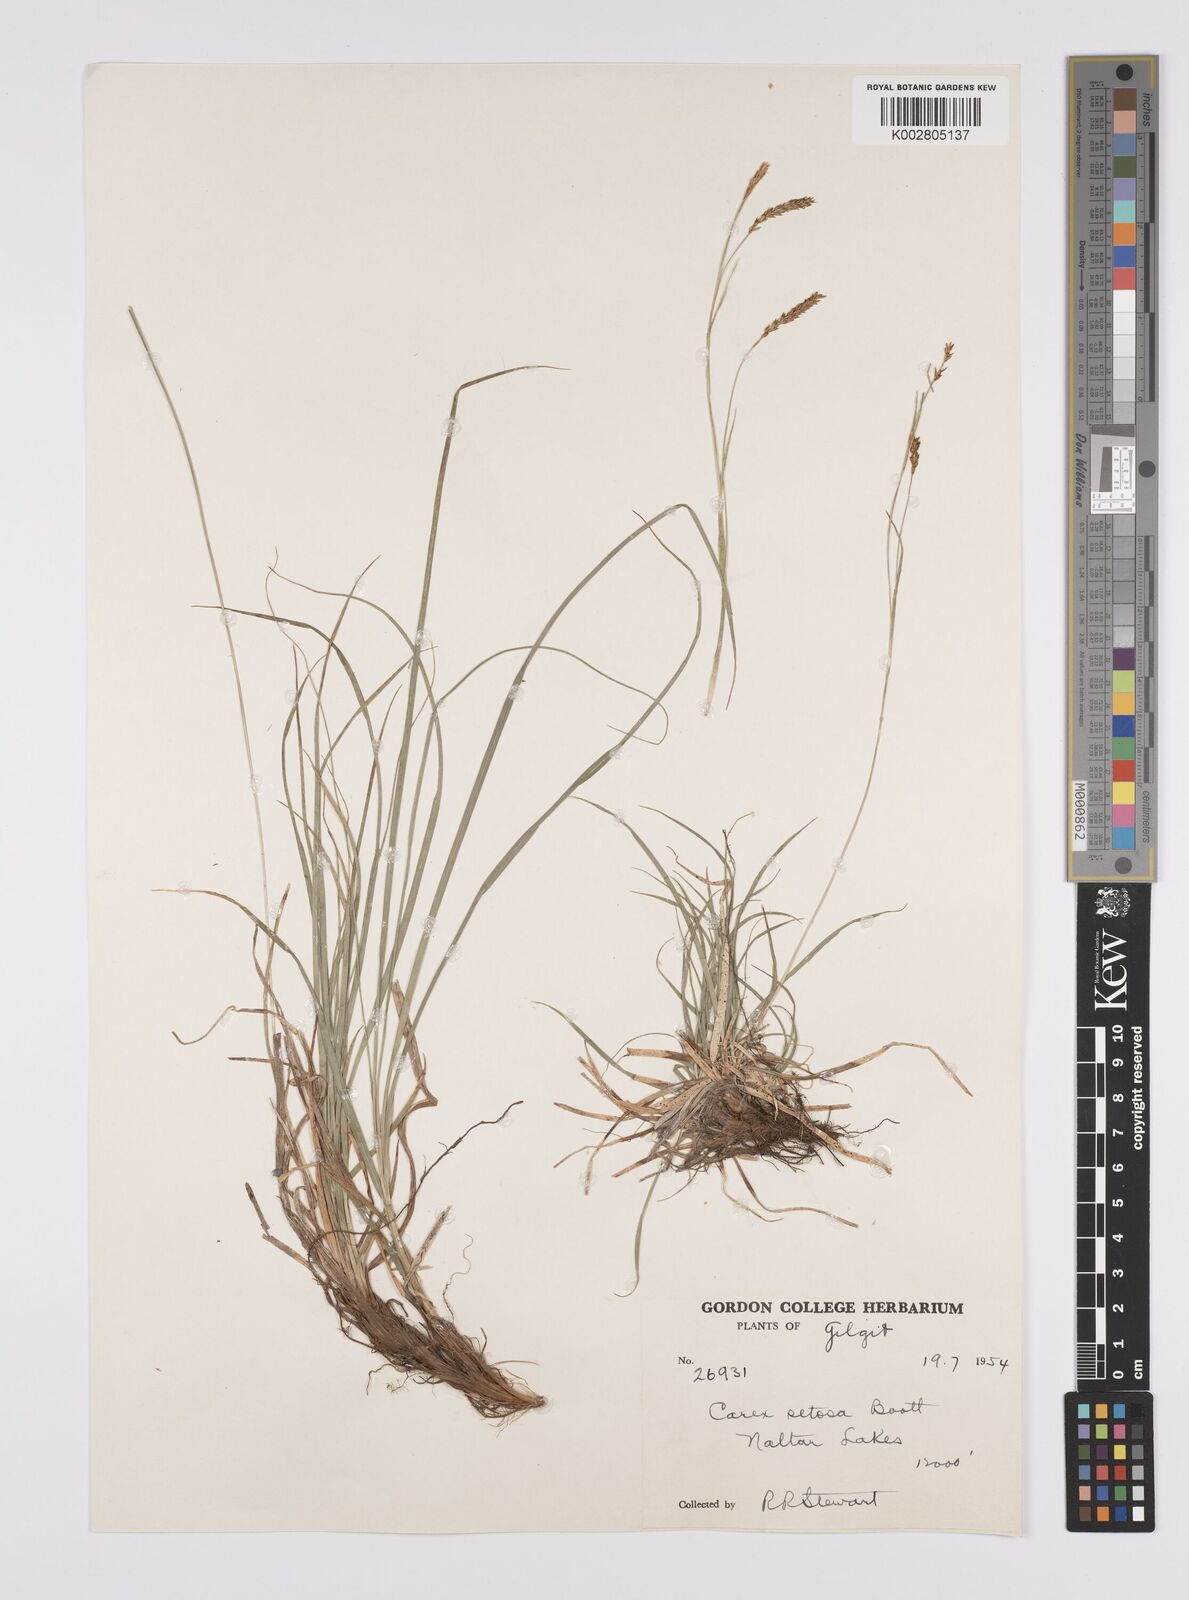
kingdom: Plantae
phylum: Tracheophyta
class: Liliopsida
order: Poales
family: Cyperaceae
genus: Carex
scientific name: Carex setosa
